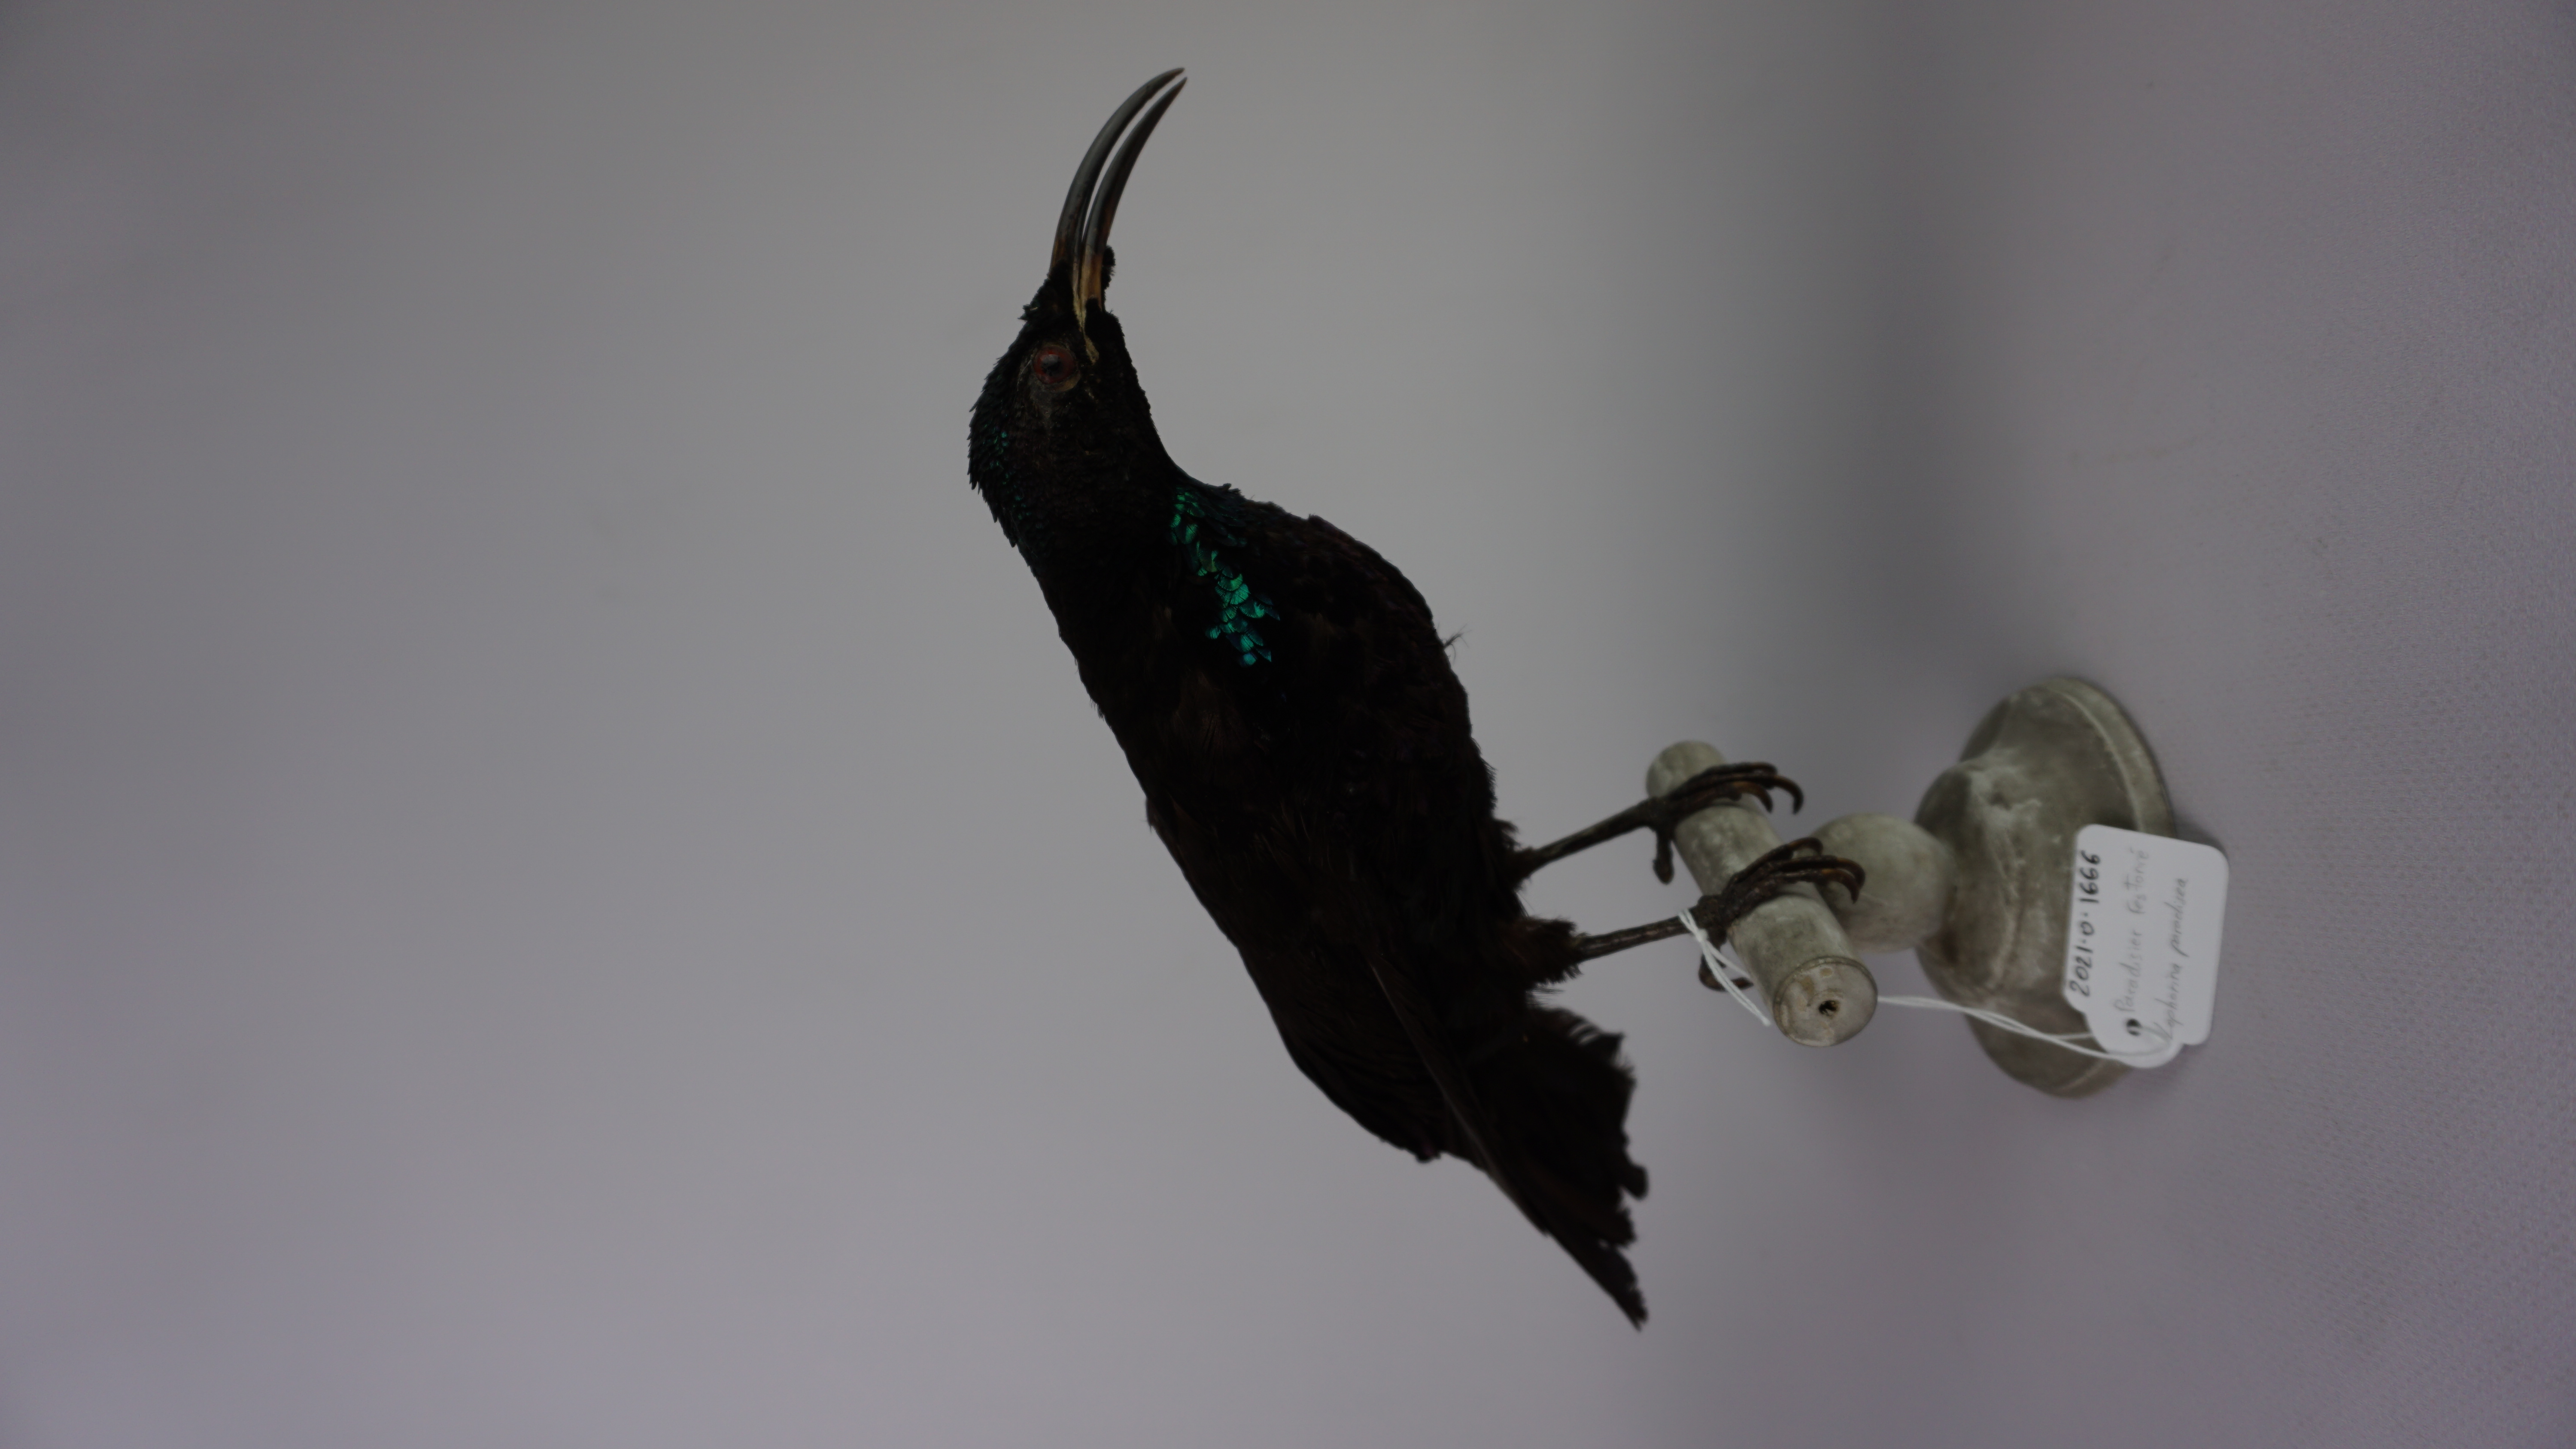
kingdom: Animalia
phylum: Chordata
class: Aves
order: Passeriformes
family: Paradisaeidae
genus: Ptiloris
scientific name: Ptiloris paradiseus
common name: Paradise riflebird
